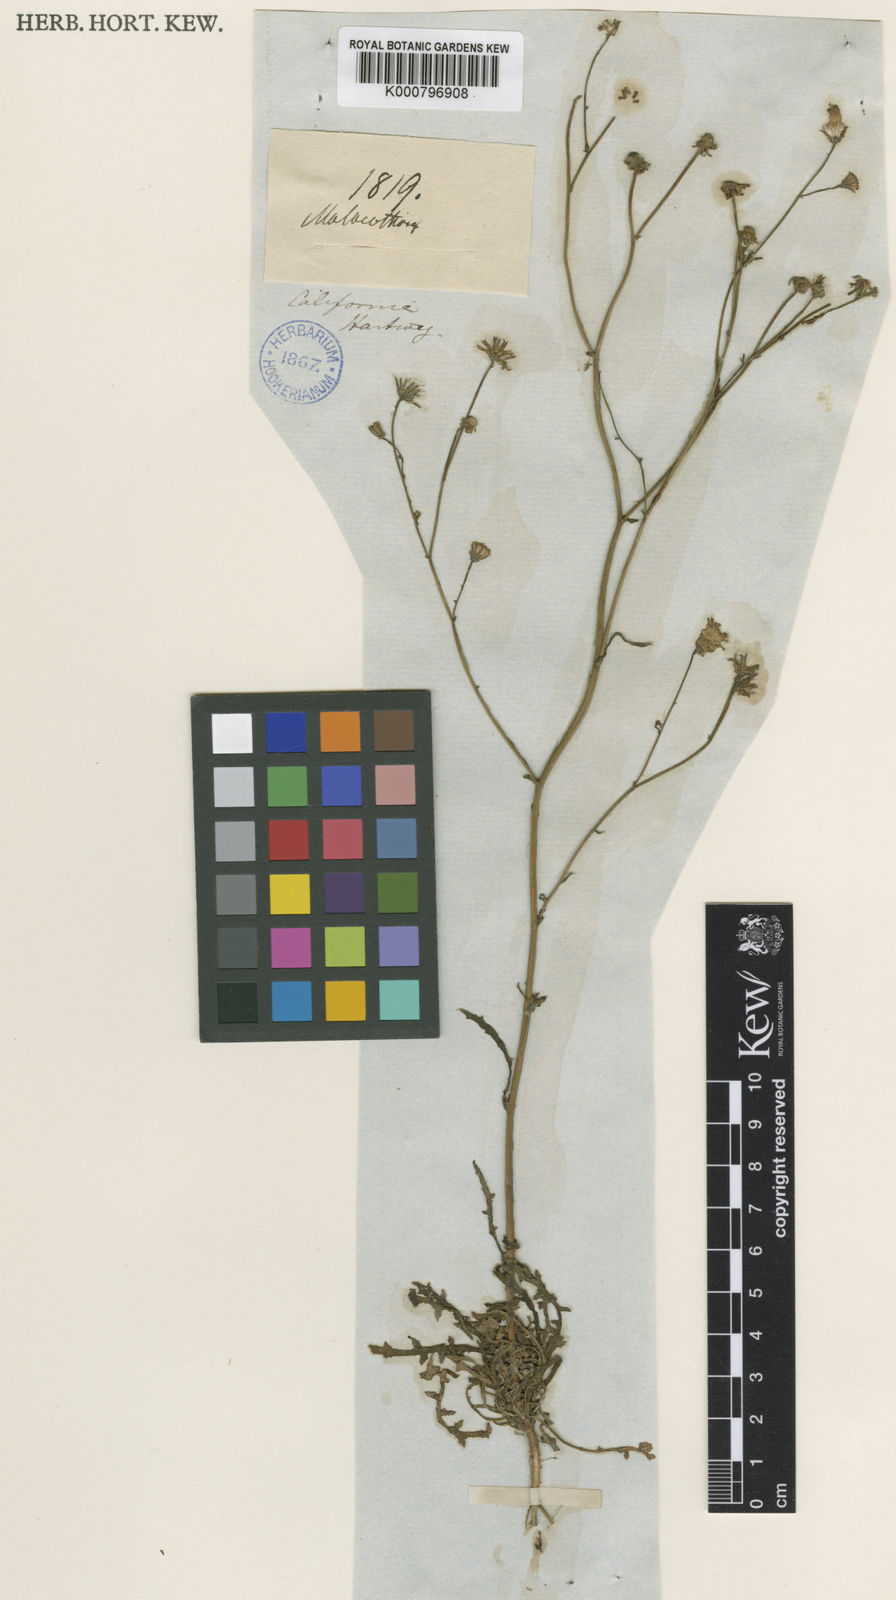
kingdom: Plantae
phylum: Tracheophyta
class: Magnoliopsida
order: Asterales
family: Asteraceae
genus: Malacothrix
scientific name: Malacothrix floccifera
